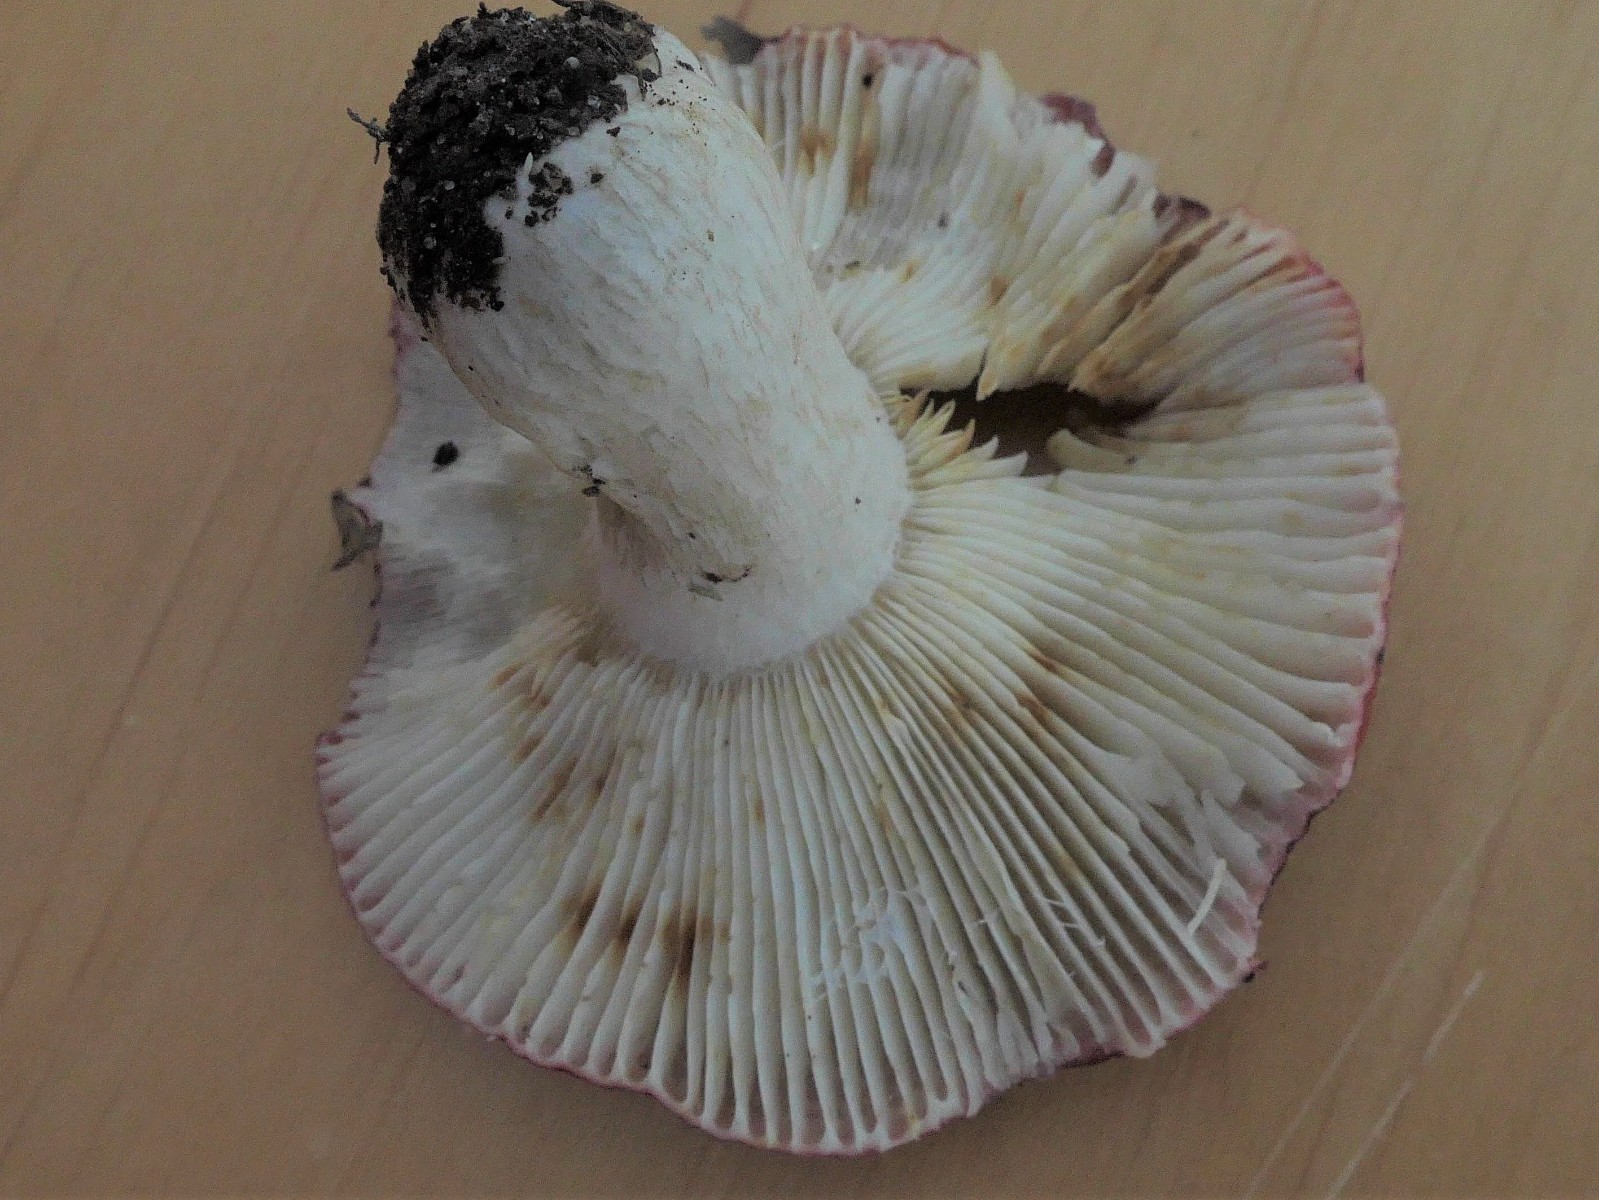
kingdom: Fungi
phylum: Basidiomycota
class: Agaricomycetes
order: Russulales
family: Russulaceae
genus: Russula
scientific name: Russula atropurpurea
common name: purpurbroget skørhat
